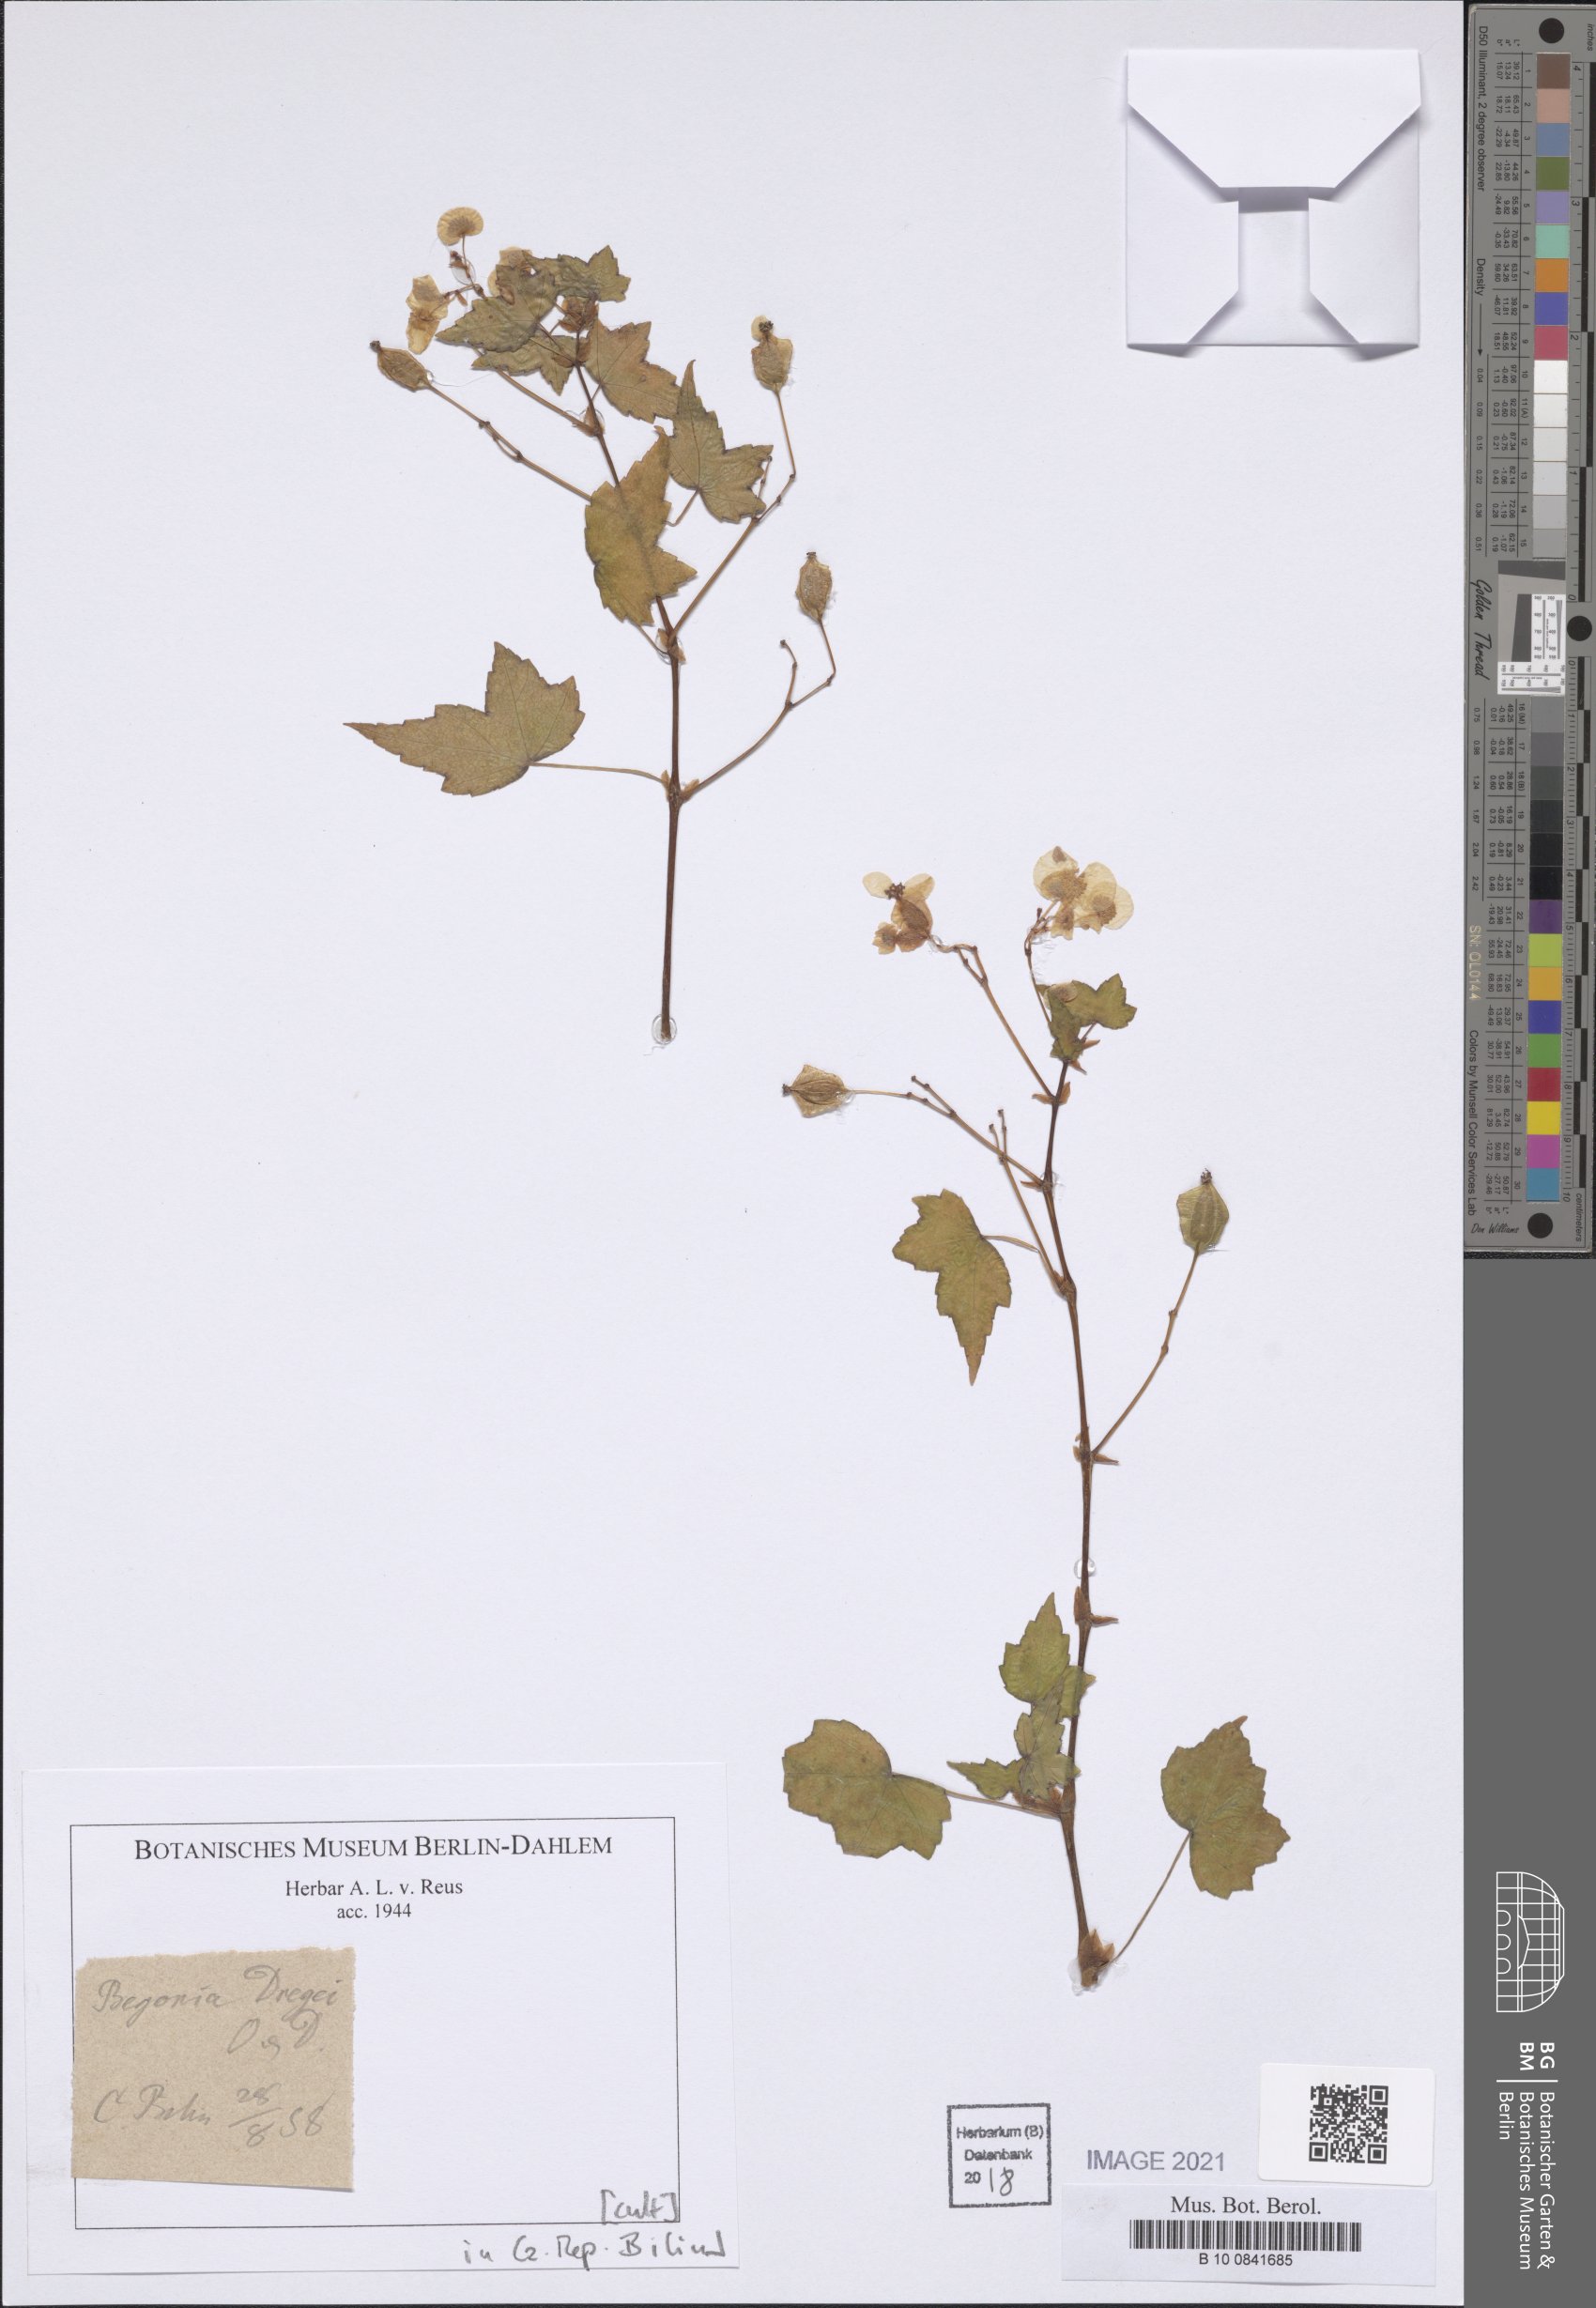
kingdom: Plantae
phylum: Tracheophyta
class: Magnoliopsida
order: Cucurbitales
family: Begoniaceae
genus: Begonia
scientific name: Begonia dregei
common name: Grape-leaf begonia
